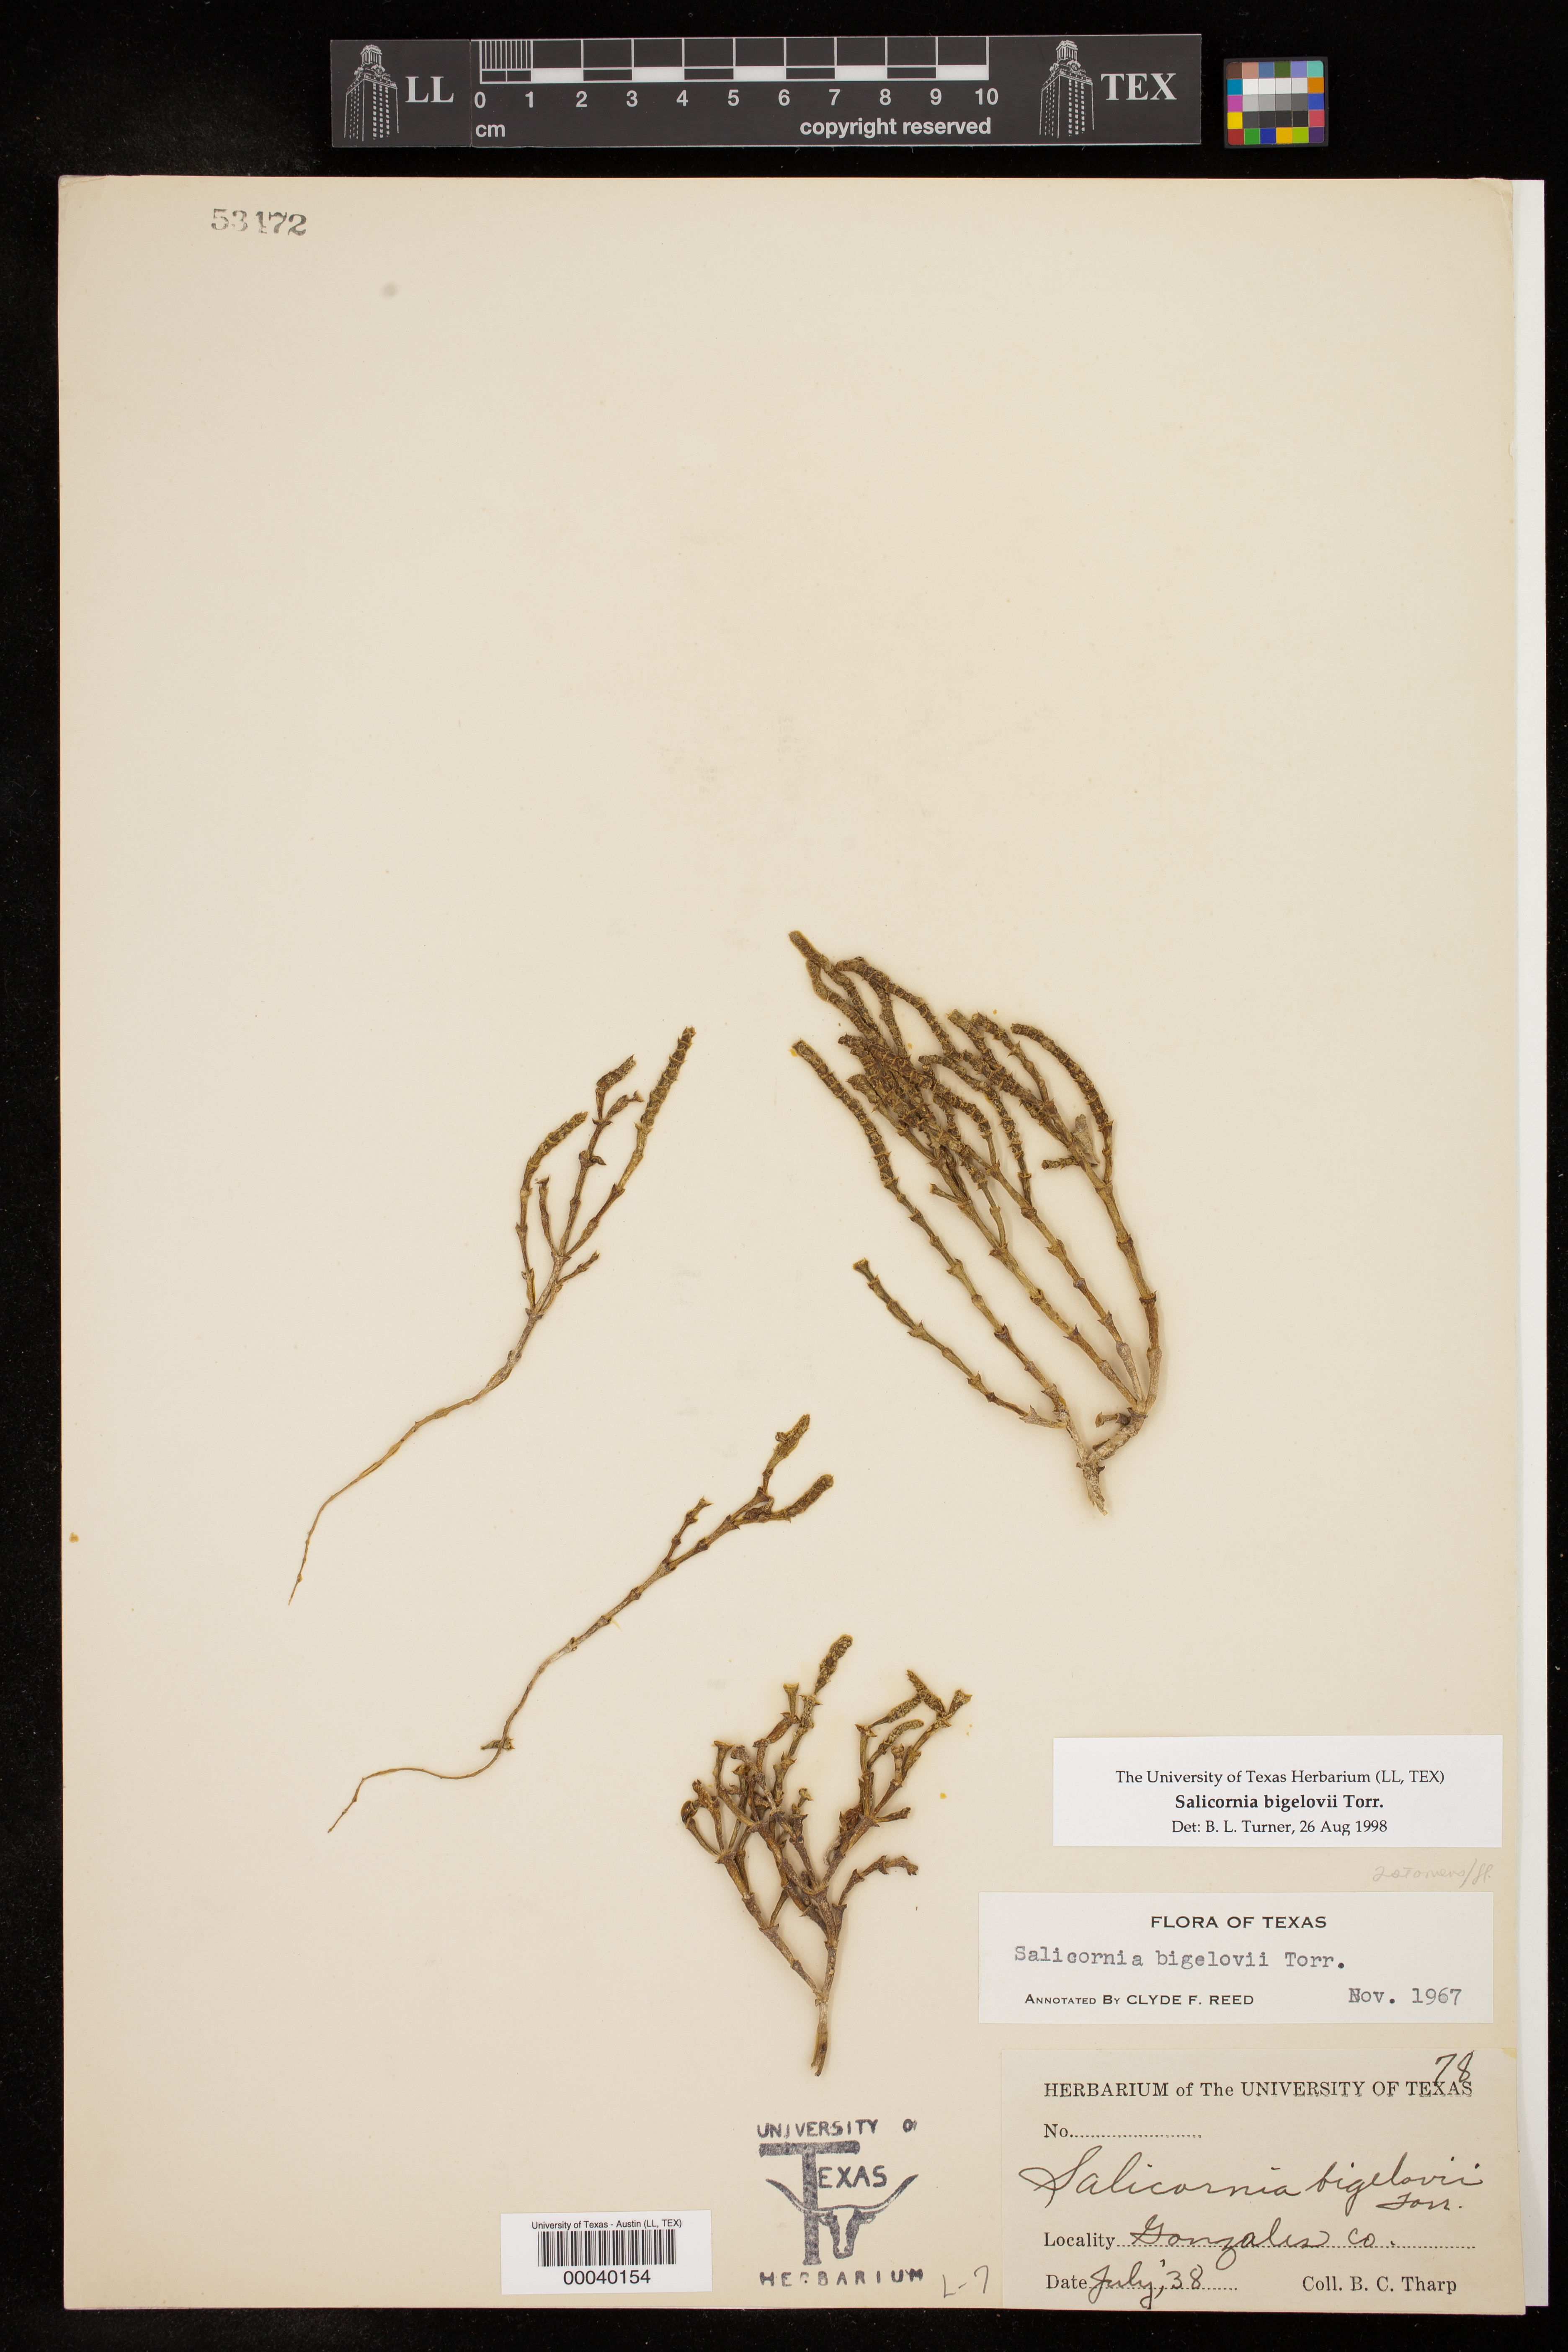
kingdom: Plantae
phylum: Tracheophyta
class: Magnoliopsida
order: Caryophyllales
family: Amaranthaceae
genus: Salicornia
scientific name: Salicornia bigelovii
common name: Dwarf glasswort
